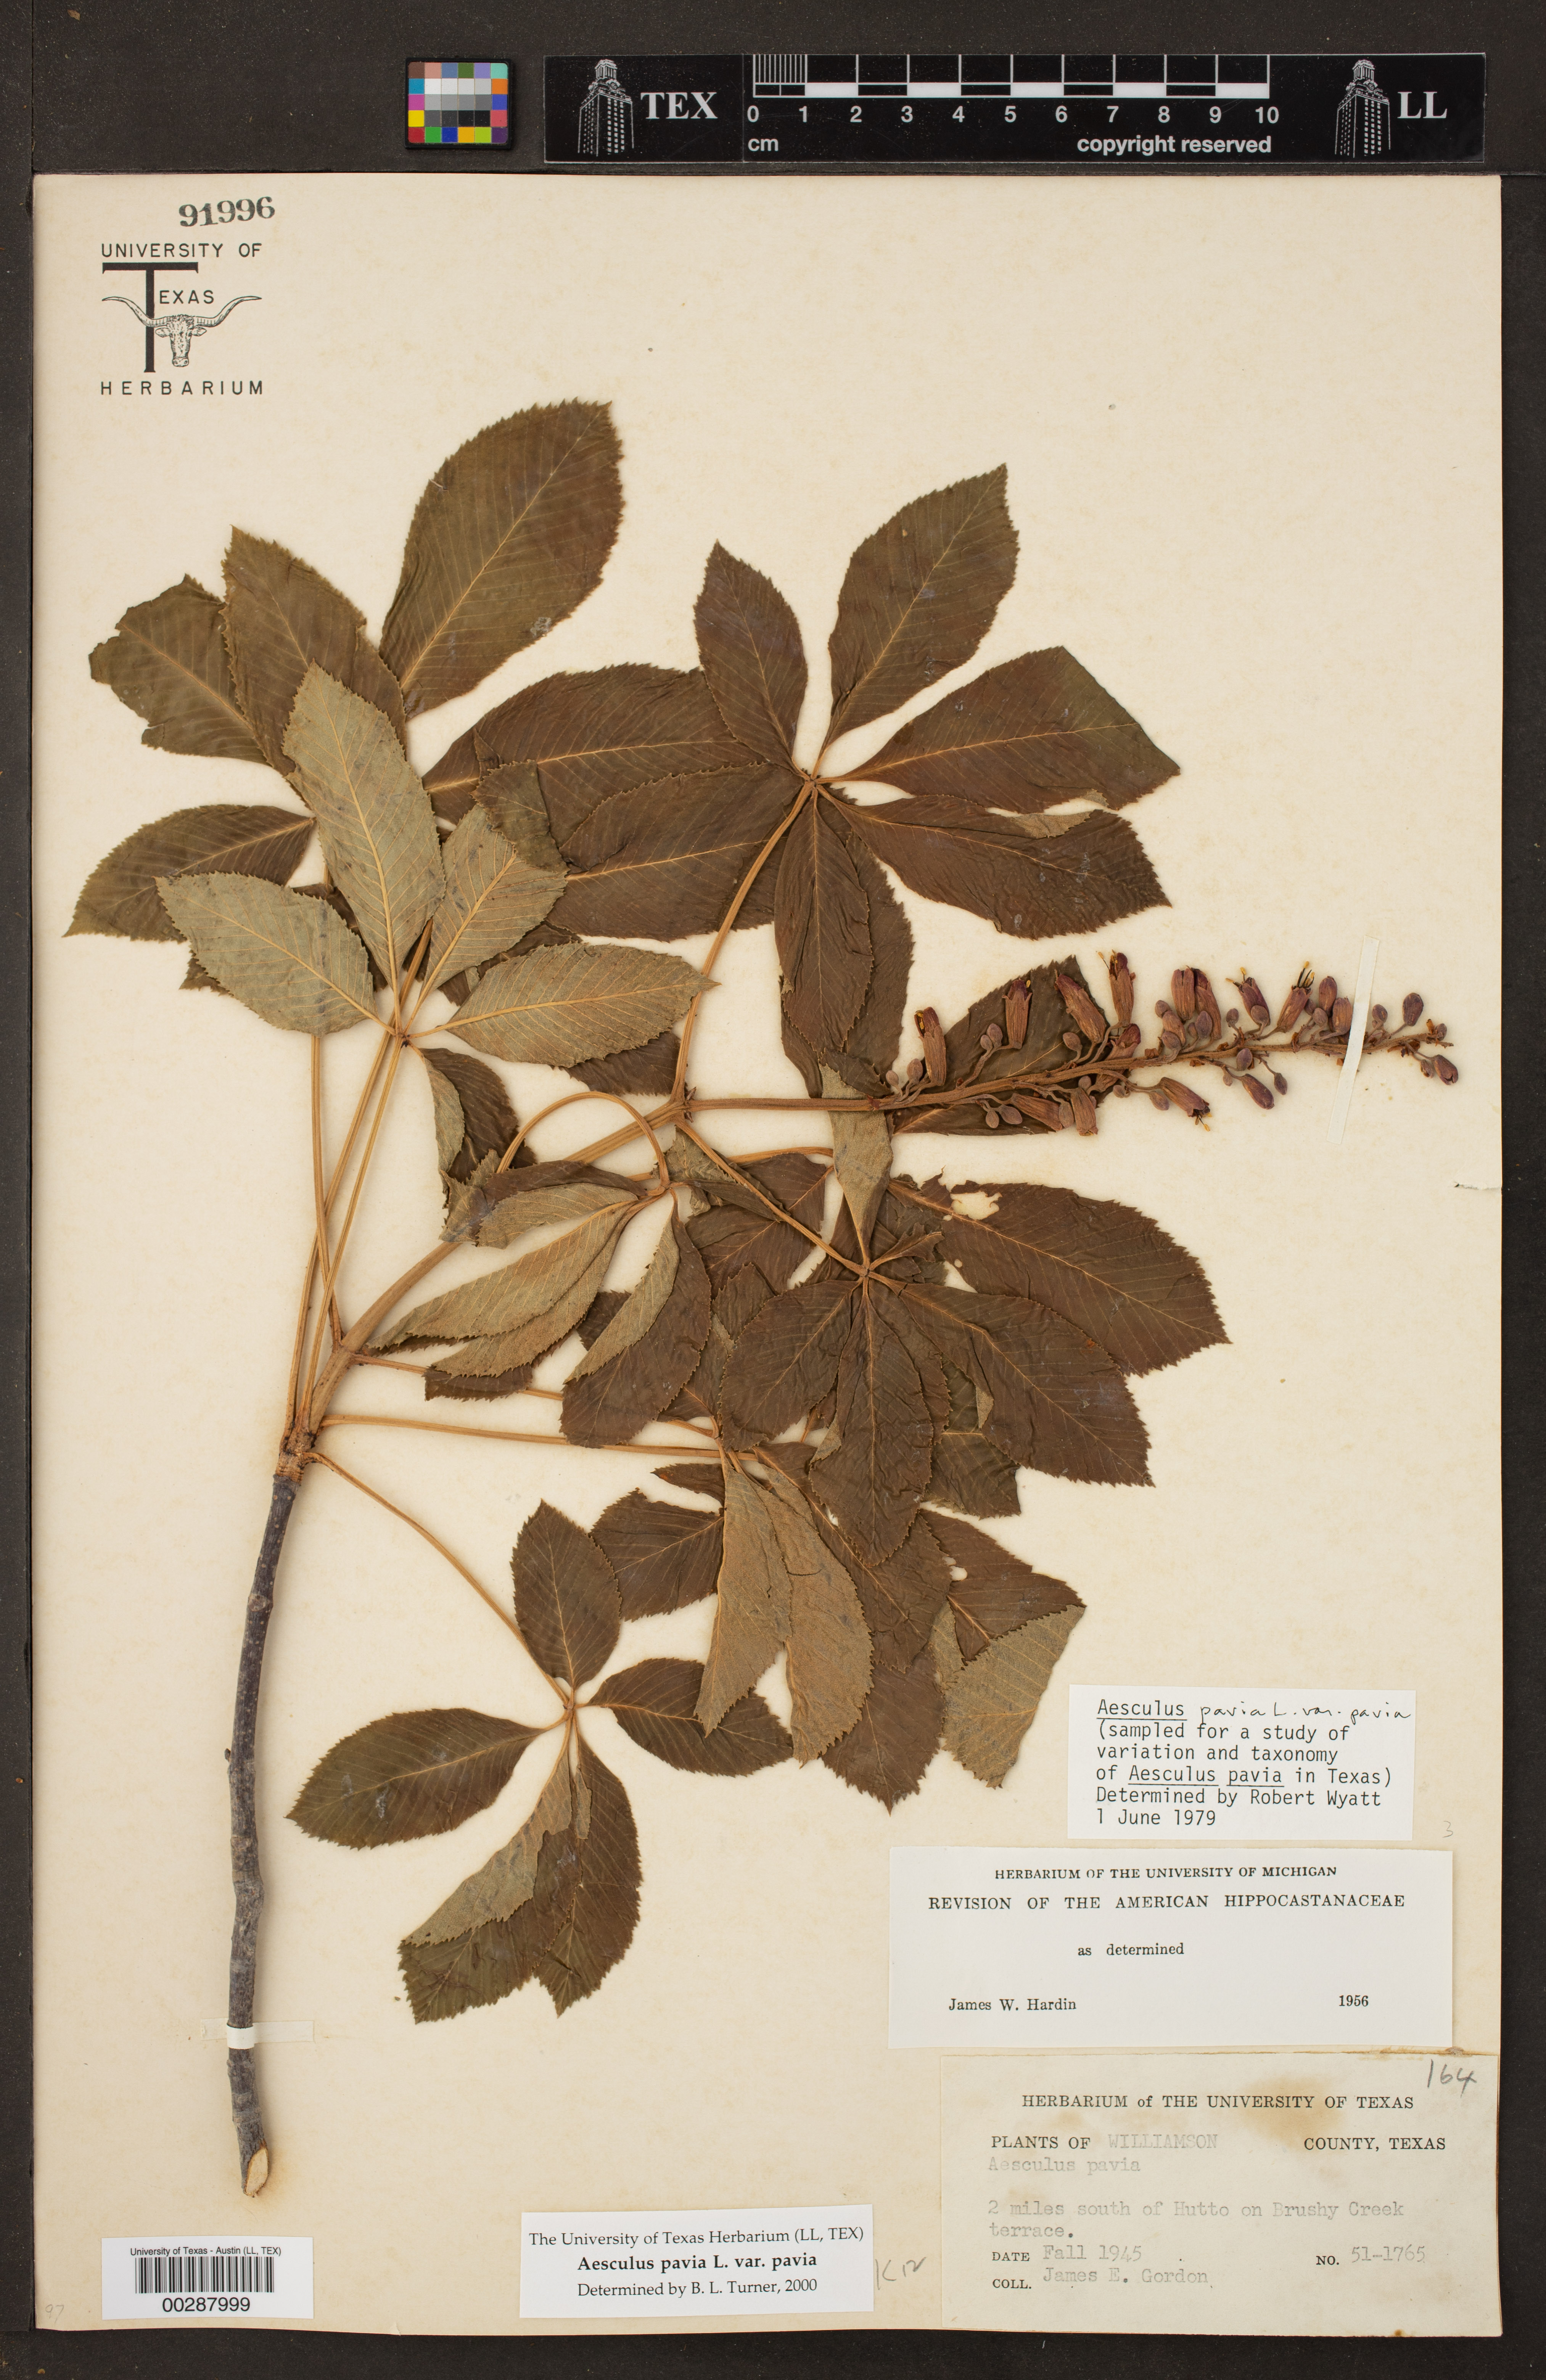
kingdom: Plantae
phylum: Tracheophyta
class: Magnoliopsida
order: Sapindales
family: Sapindaceae
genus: Aesculus
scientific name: Aesculus pavia
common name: Red buckeye
